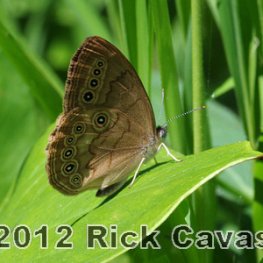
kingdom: Animalia
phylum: Arthropoda
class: Insecta
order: Lepidoptera
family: Nymphalidae
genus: Lethe
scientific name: Lethe eurydice
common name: Eyed Brown
